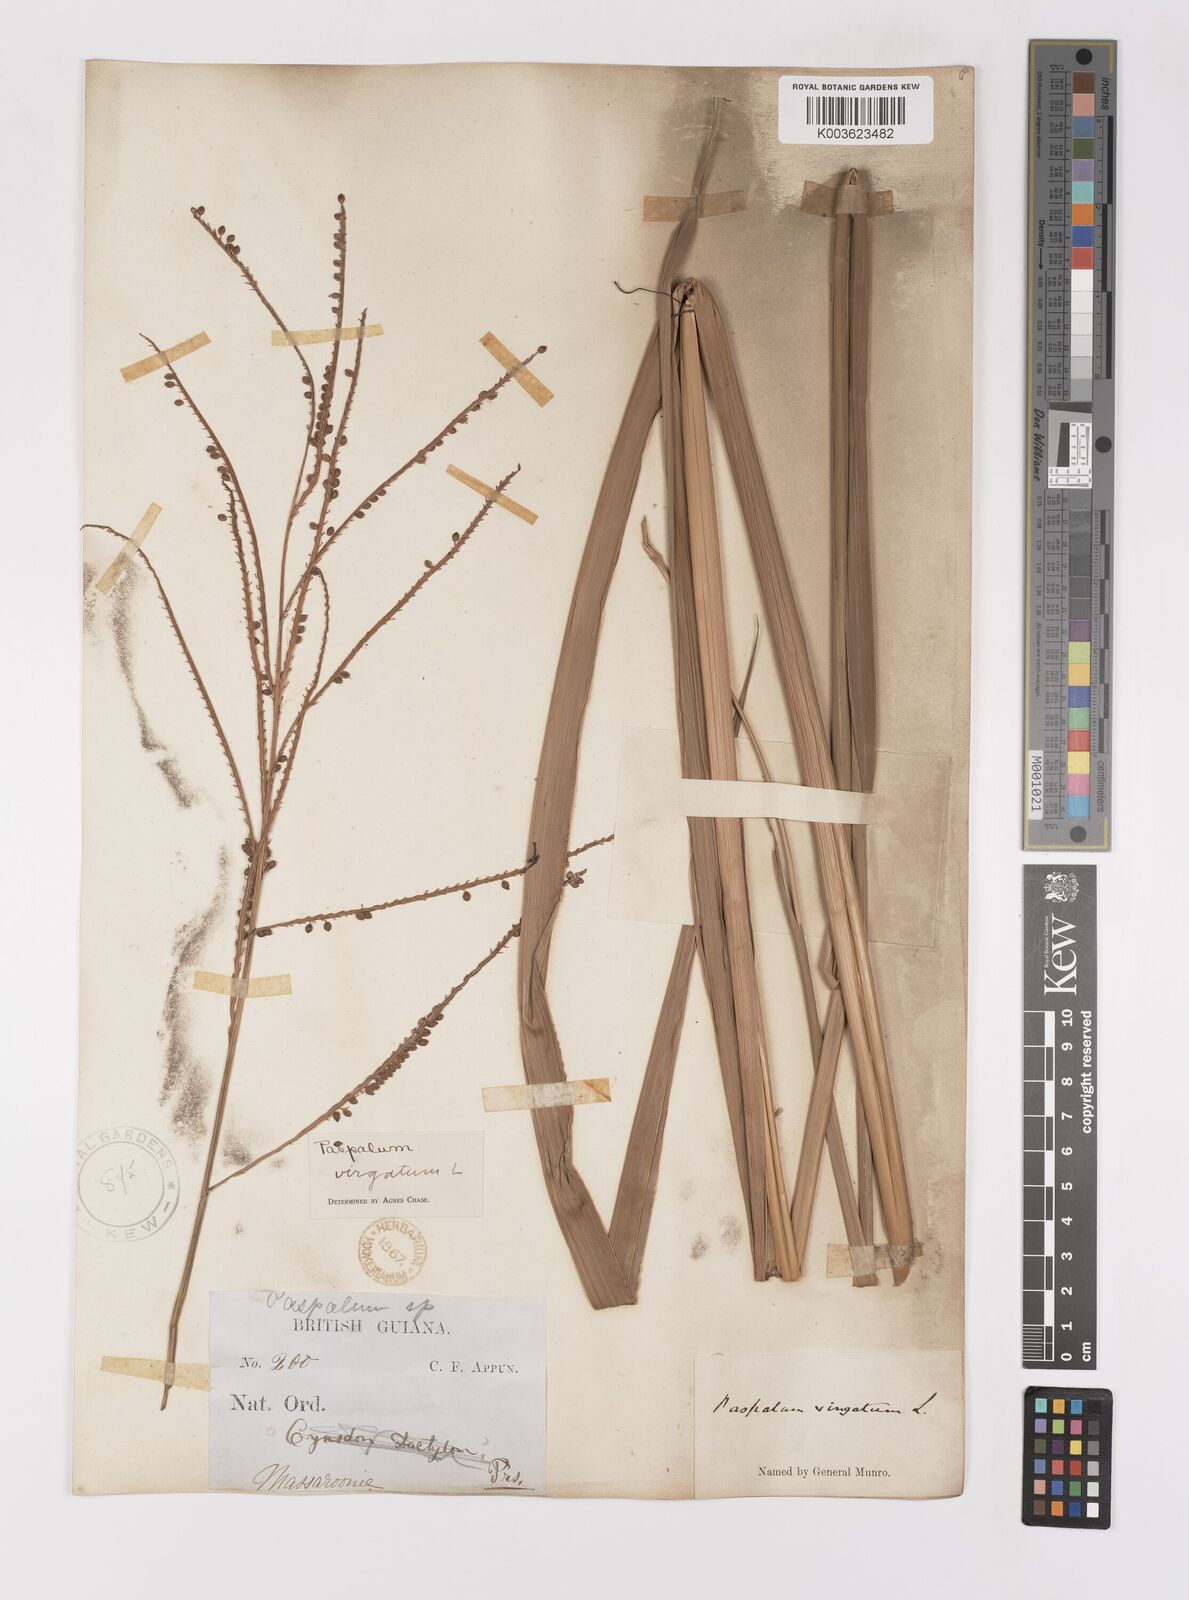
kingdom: Plantae
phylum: Tracheophyta
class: Liliopsida
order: Poales
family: Poaceae
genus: Paspalum
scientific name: Paspalum virgatum
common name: Talquezal
